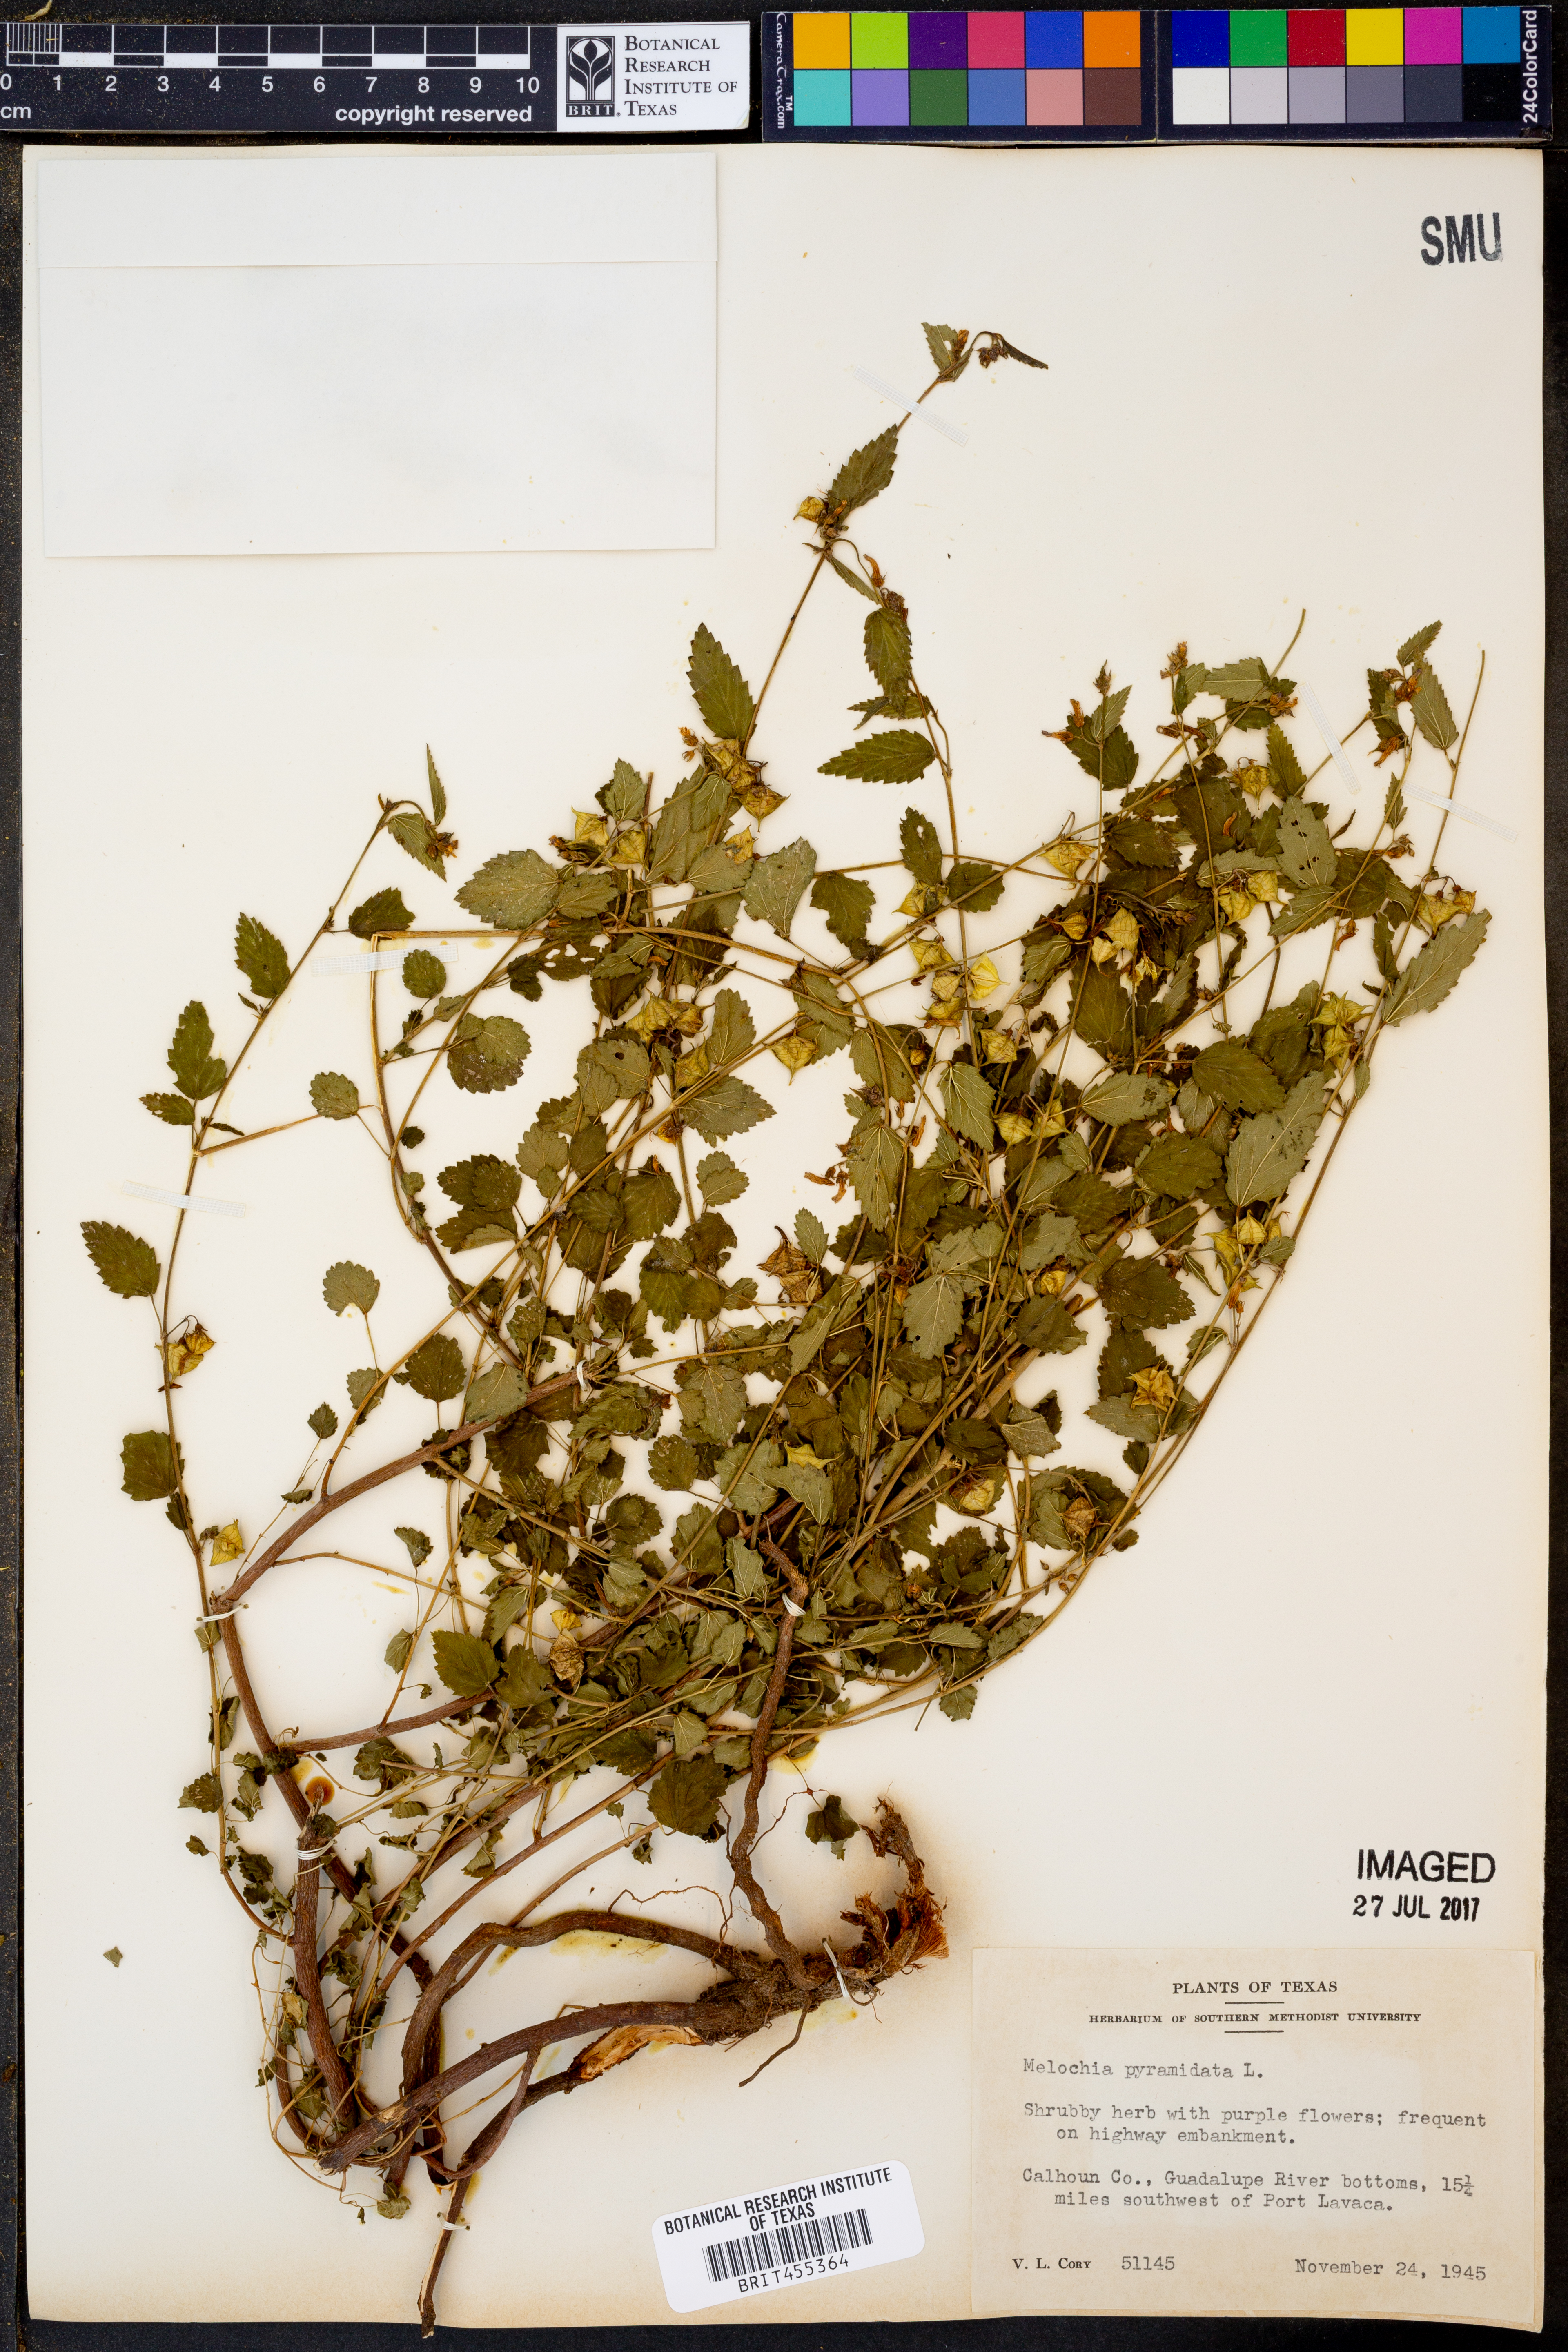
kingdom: Plantae
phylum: Tracheophyta
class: Magnoliopsida
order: Malvales
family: Malvaceae
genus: Melochia
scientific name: Melochia pyramidata
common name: Pyramidflower
